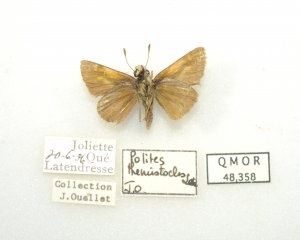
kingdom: Animalia
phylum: Arthropoda
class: Insecta
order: Lepidoptera
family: Hesperiidae
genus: Polites
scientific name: Polites themistocles
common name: Tawny-edged Skipper
